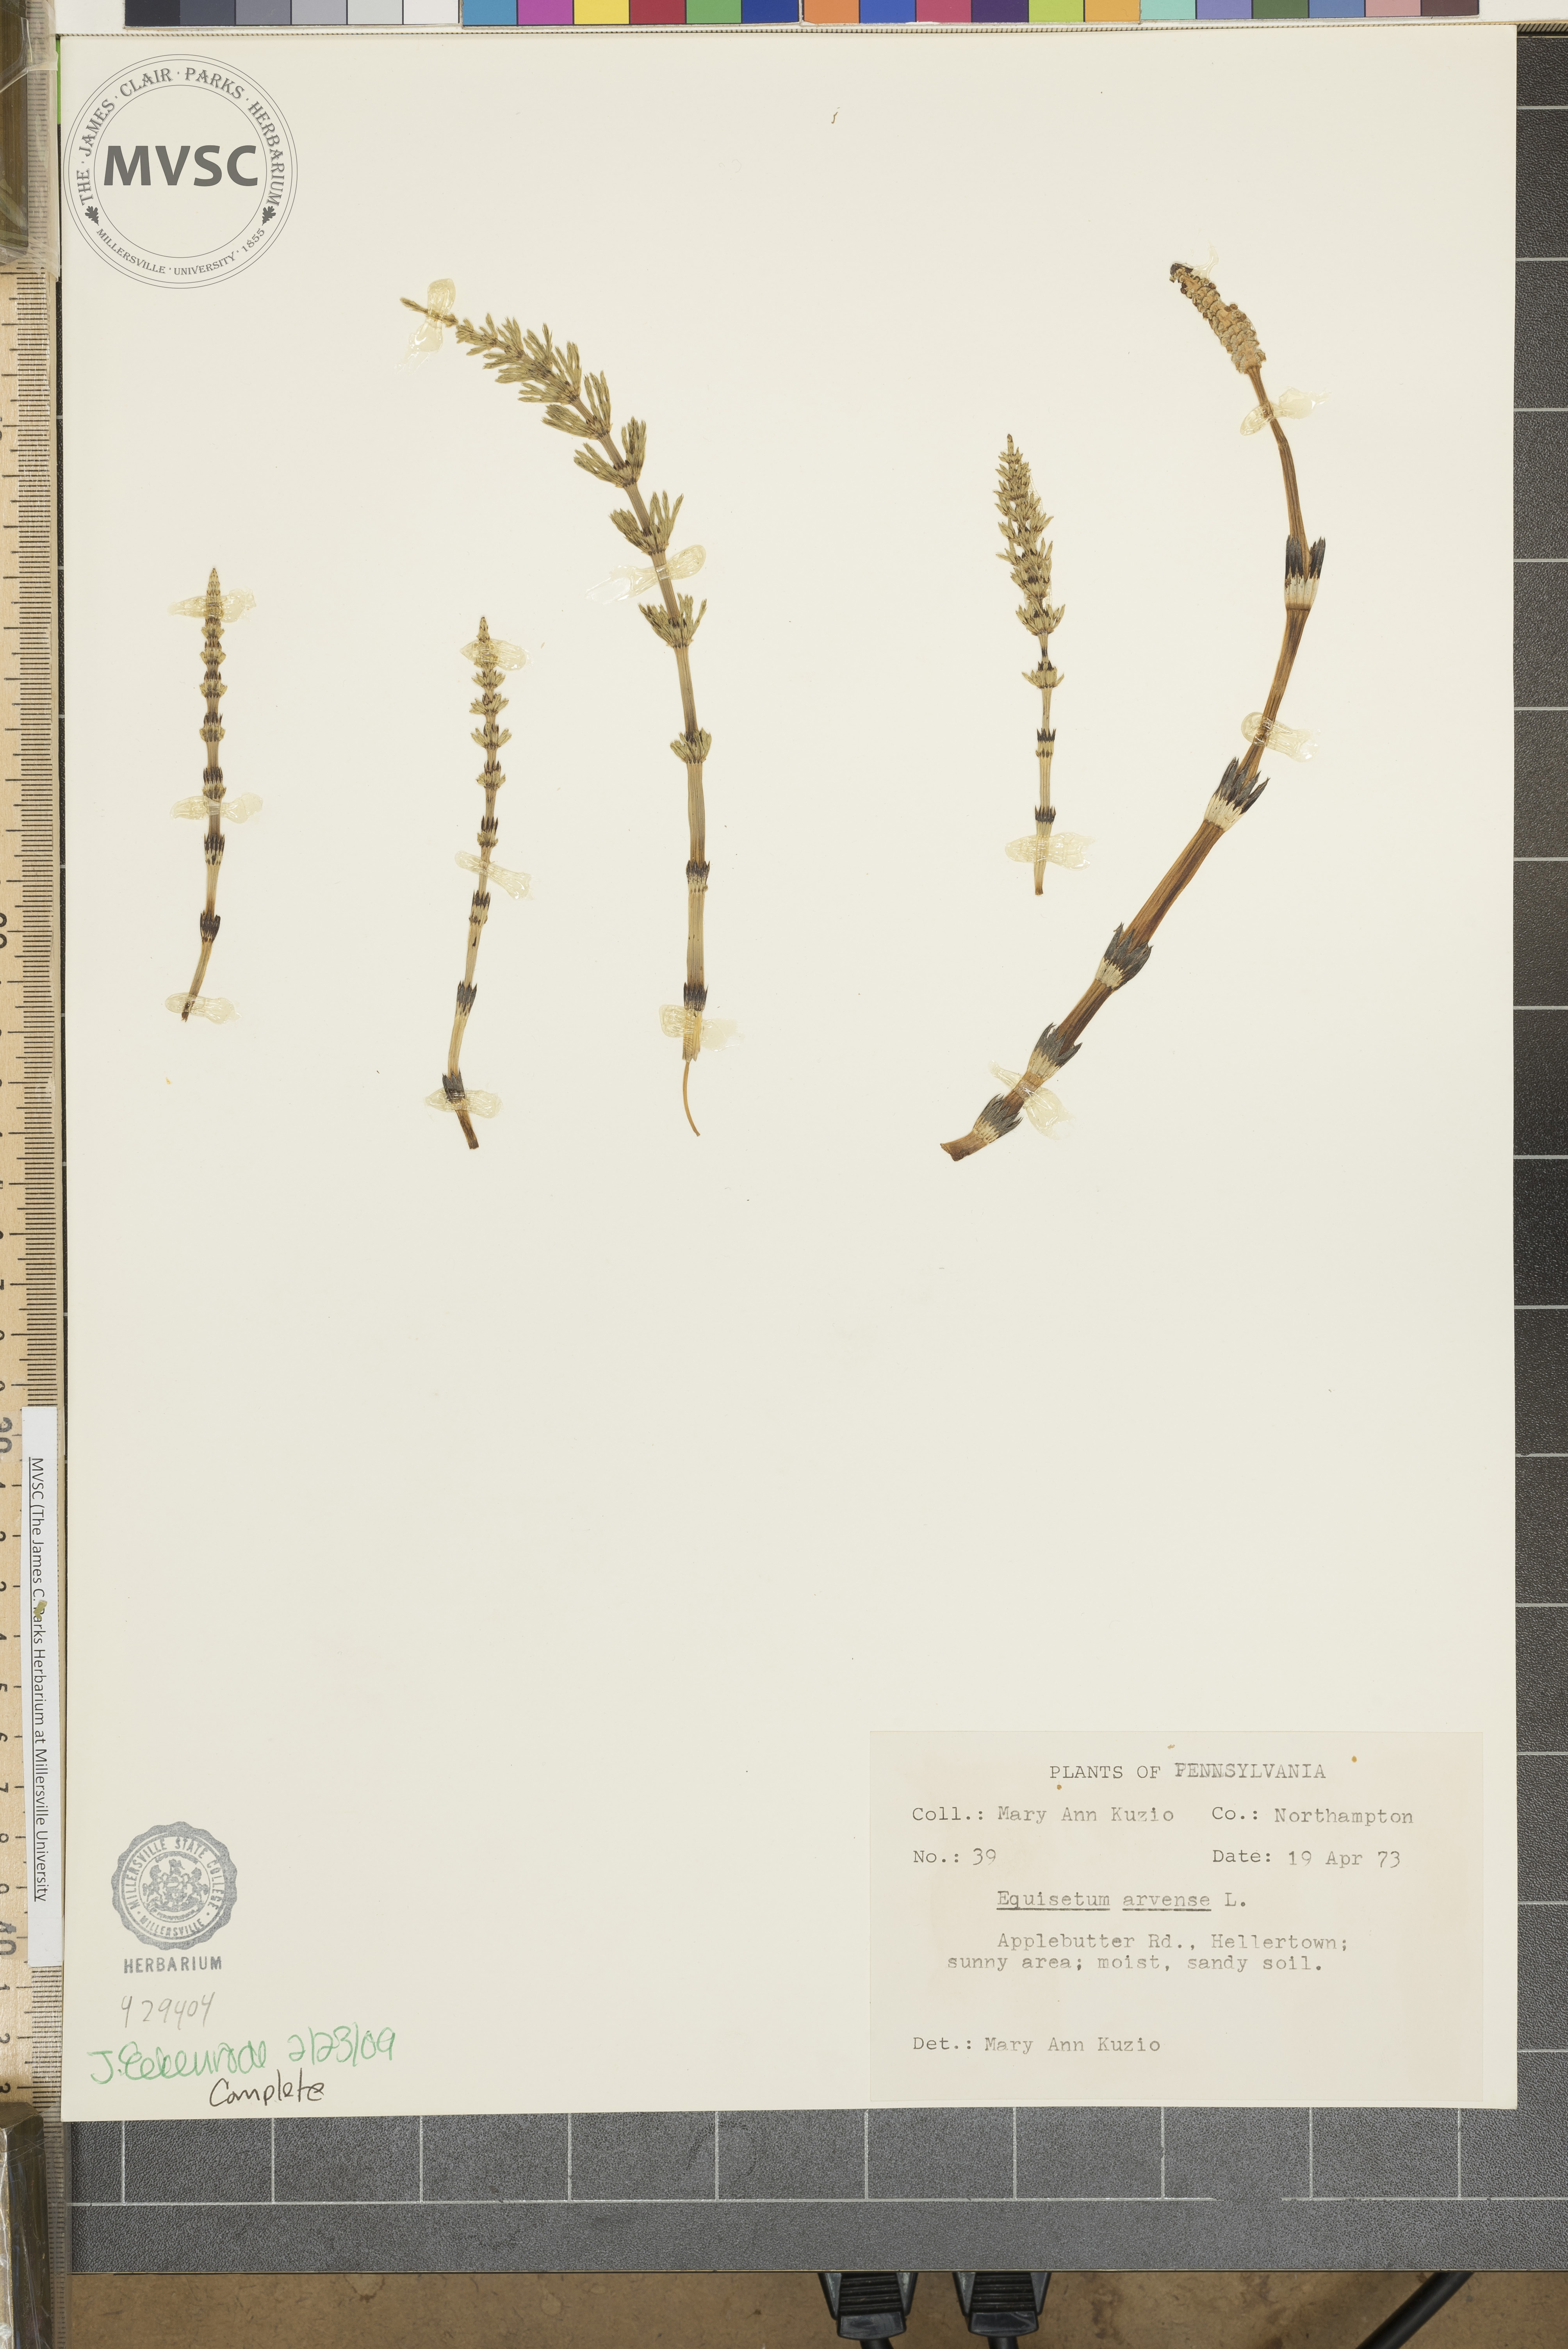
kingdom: Plantae
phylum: Tracheophyta
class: Polypodiopsida
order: Equisetales
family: Equisetaceae
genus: Equisetum
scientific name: Equisetum arvense
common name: Field horsetail
